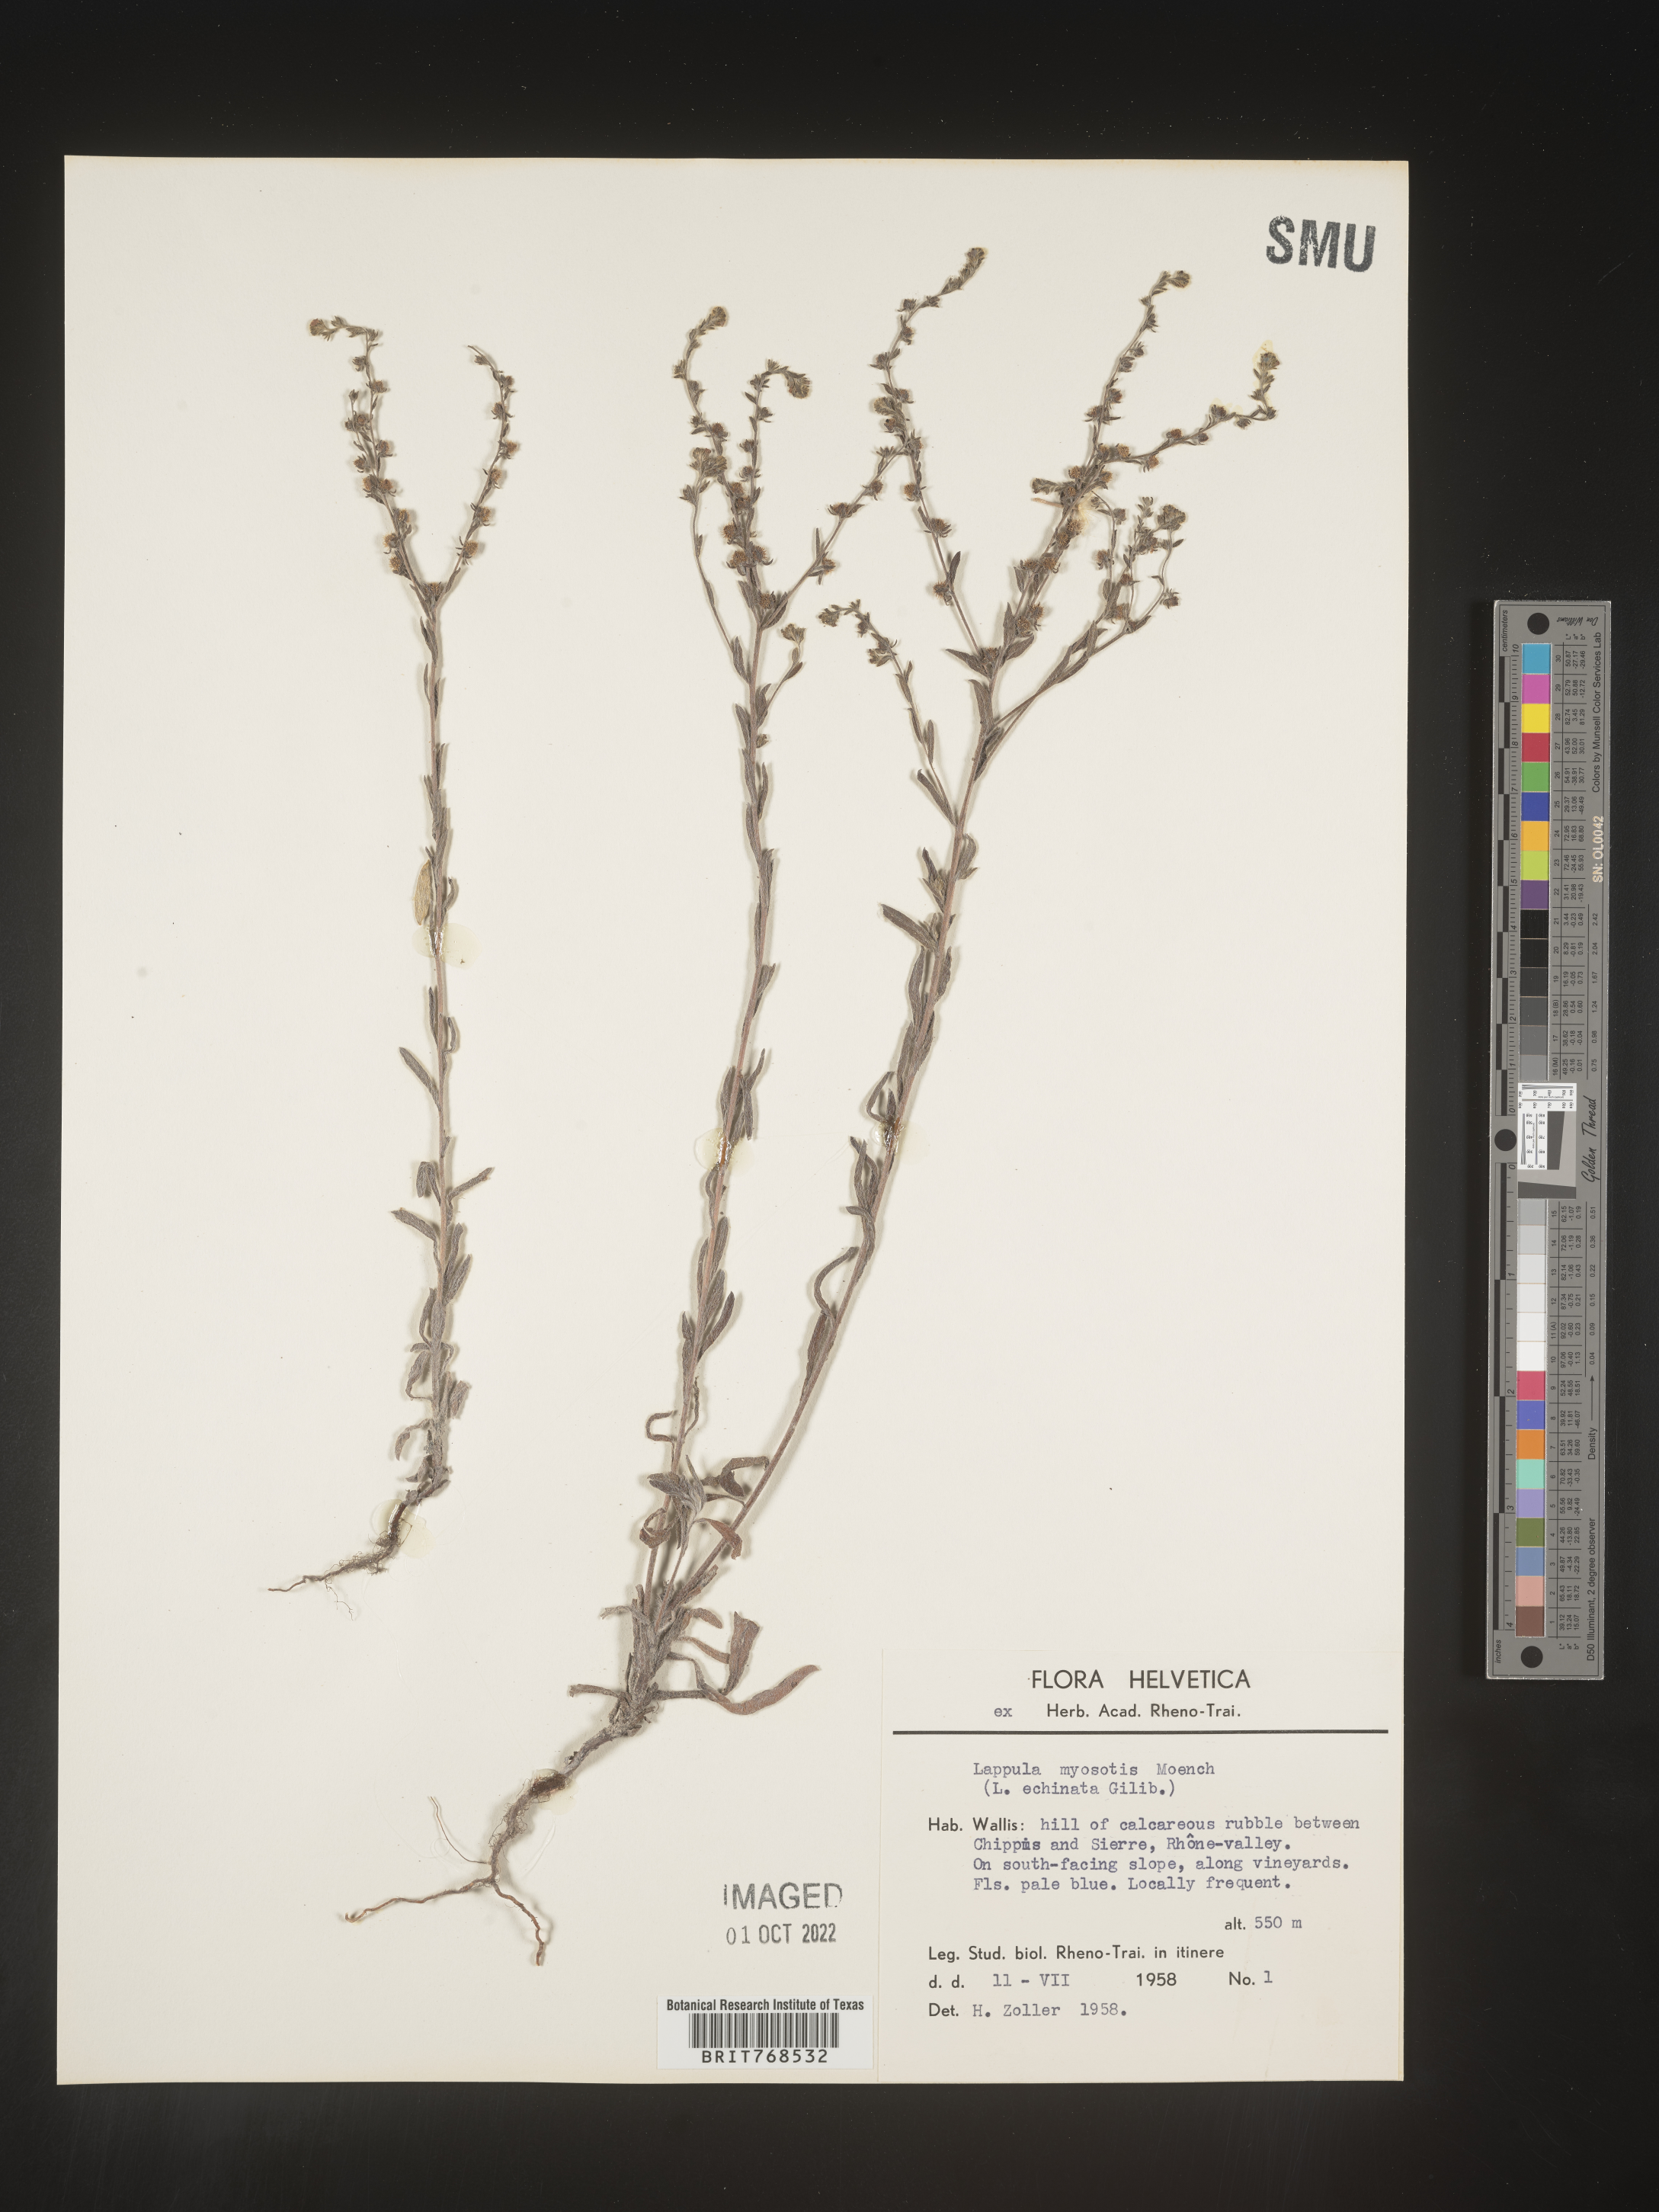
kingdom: Plantae
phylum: Tracheophyta
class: Magnoliopsida
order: Boraginales
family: Boraginaceae
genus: Lappula
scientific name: Lappula
